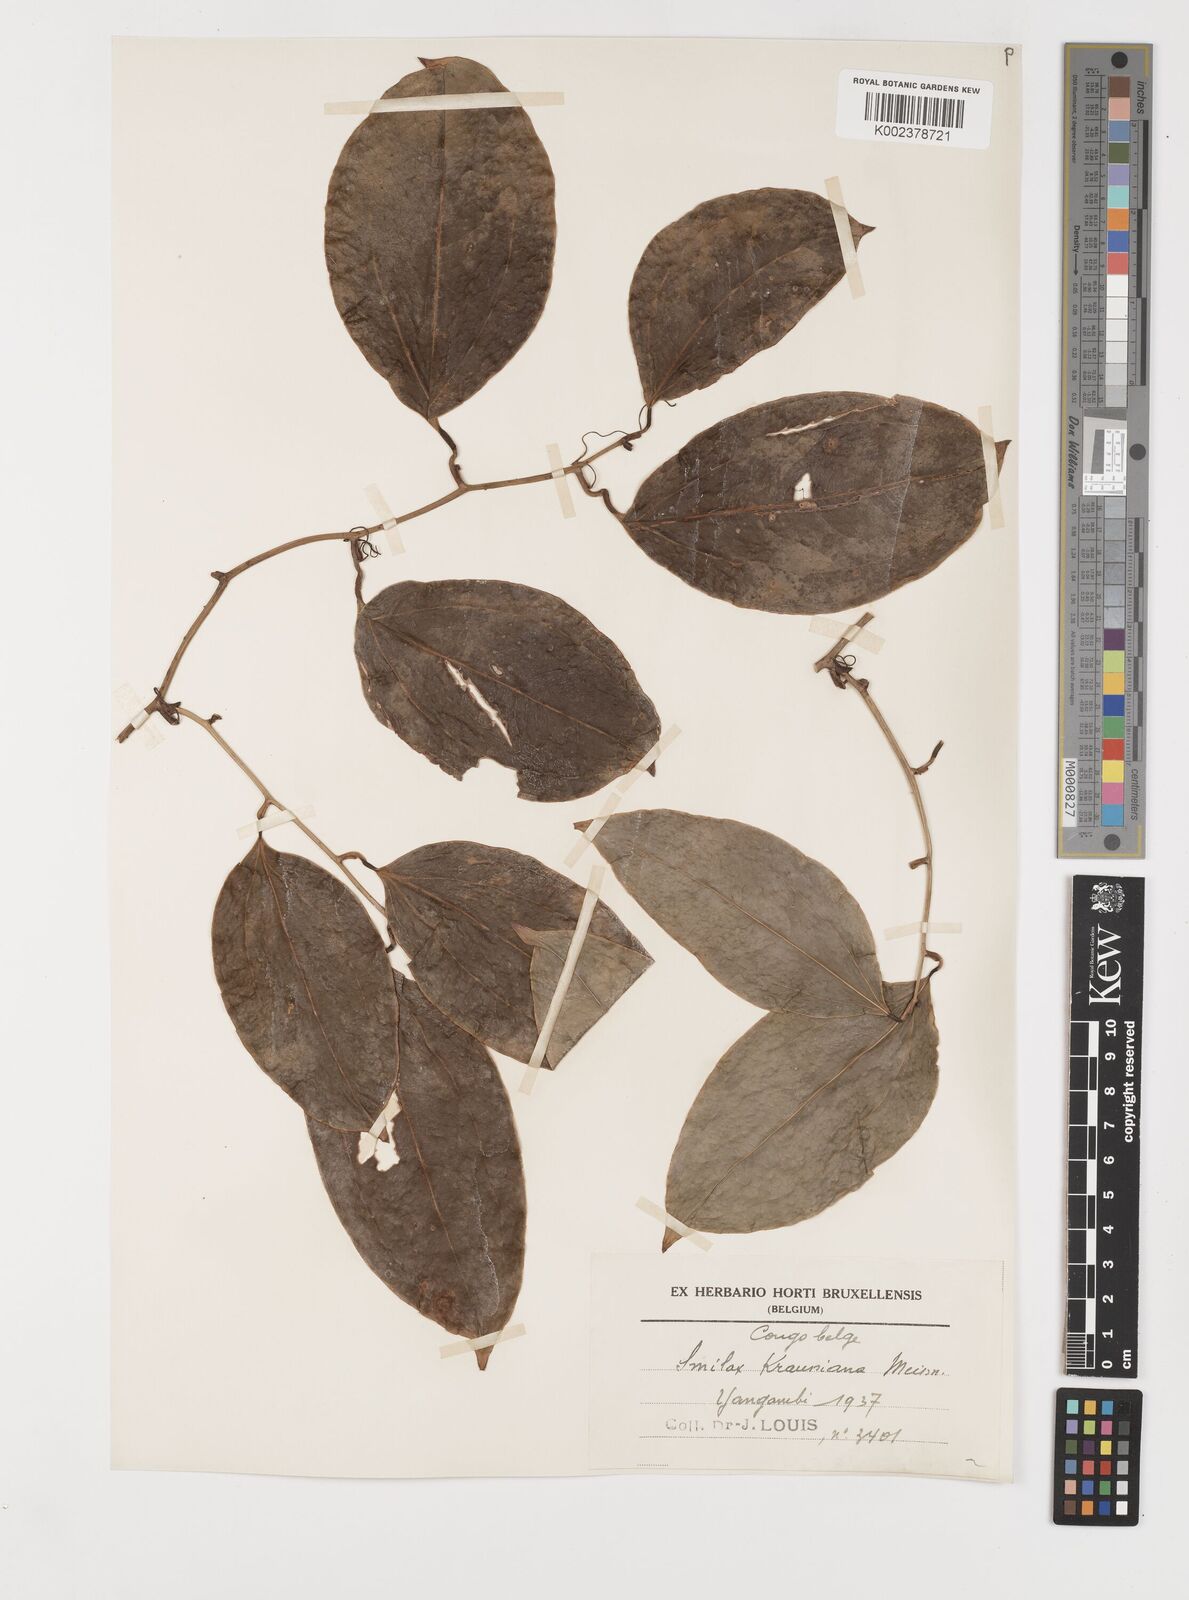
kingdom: Plantae
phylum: Tracheophyta
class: Liliopsida
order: Liliales
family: Smilacaceae
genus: Smilax
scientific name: Smilax anceps
